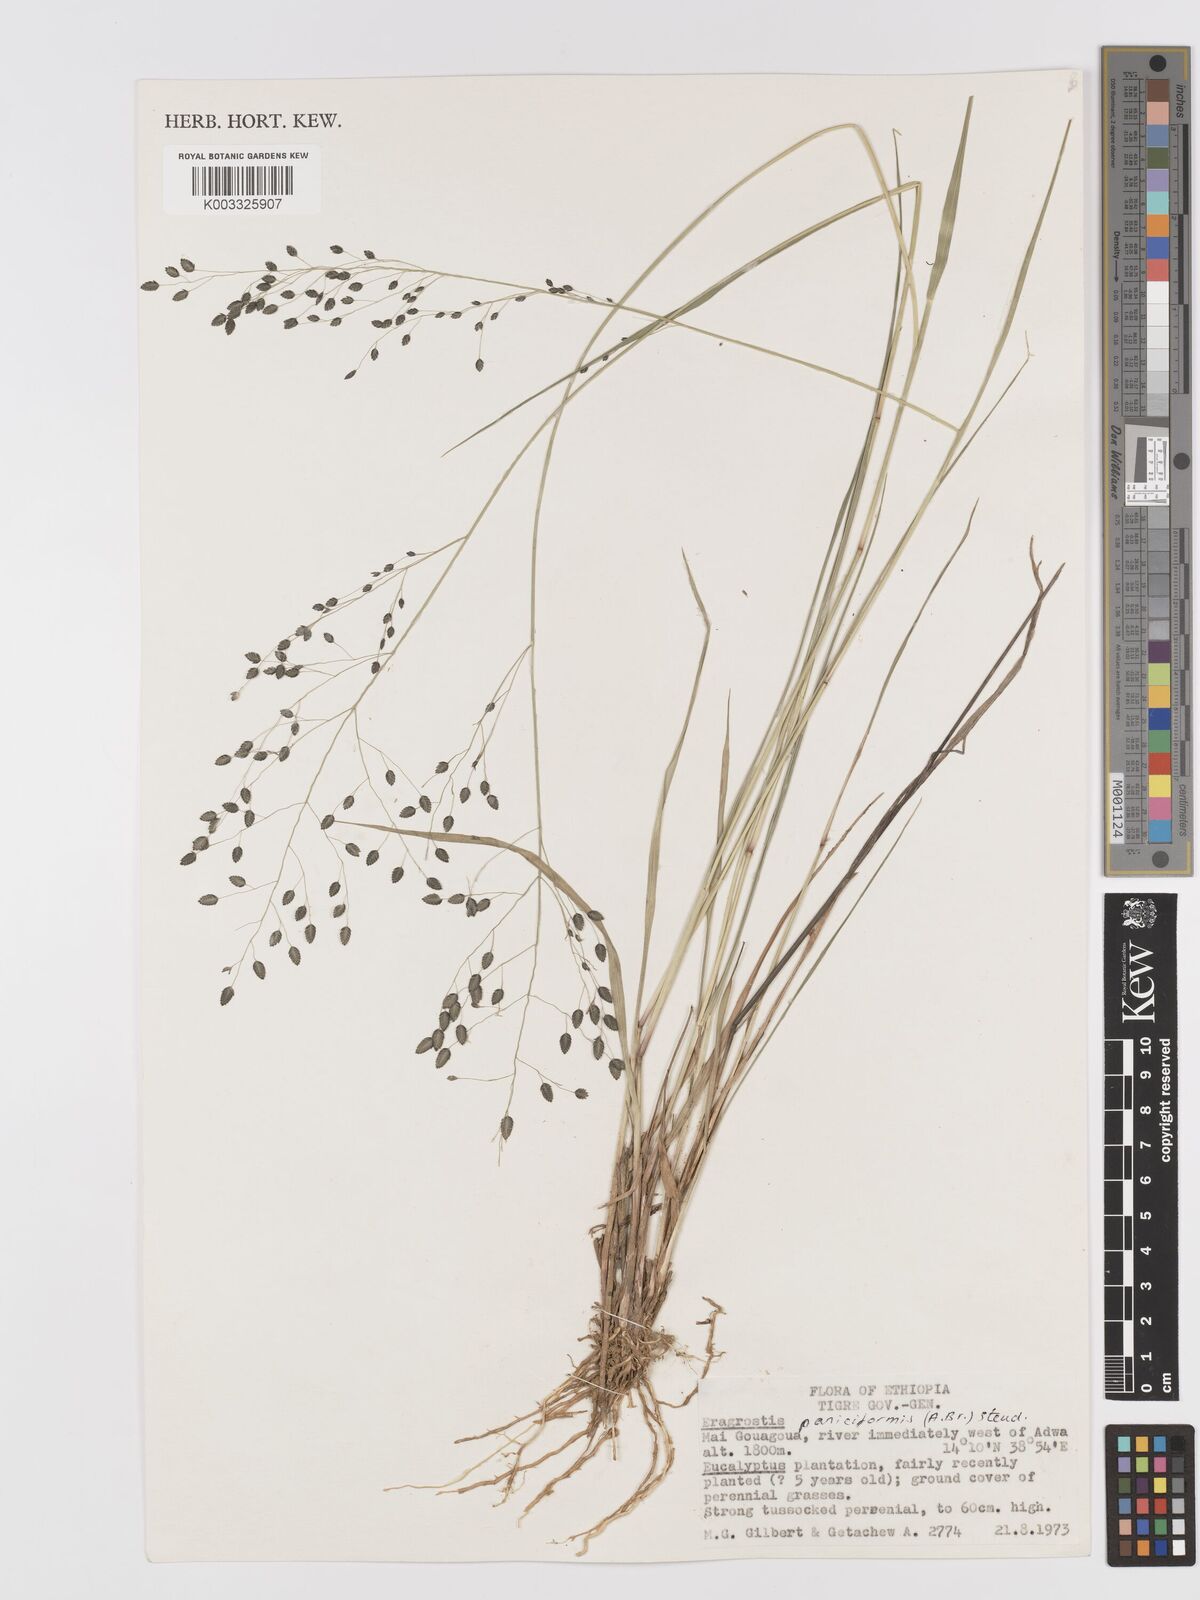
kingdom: Plantae
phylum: Tracheophyta
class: Liliopsida
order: Poales
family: Poaceae
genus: Eragrostis
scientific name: Eragrostis paniciformis
